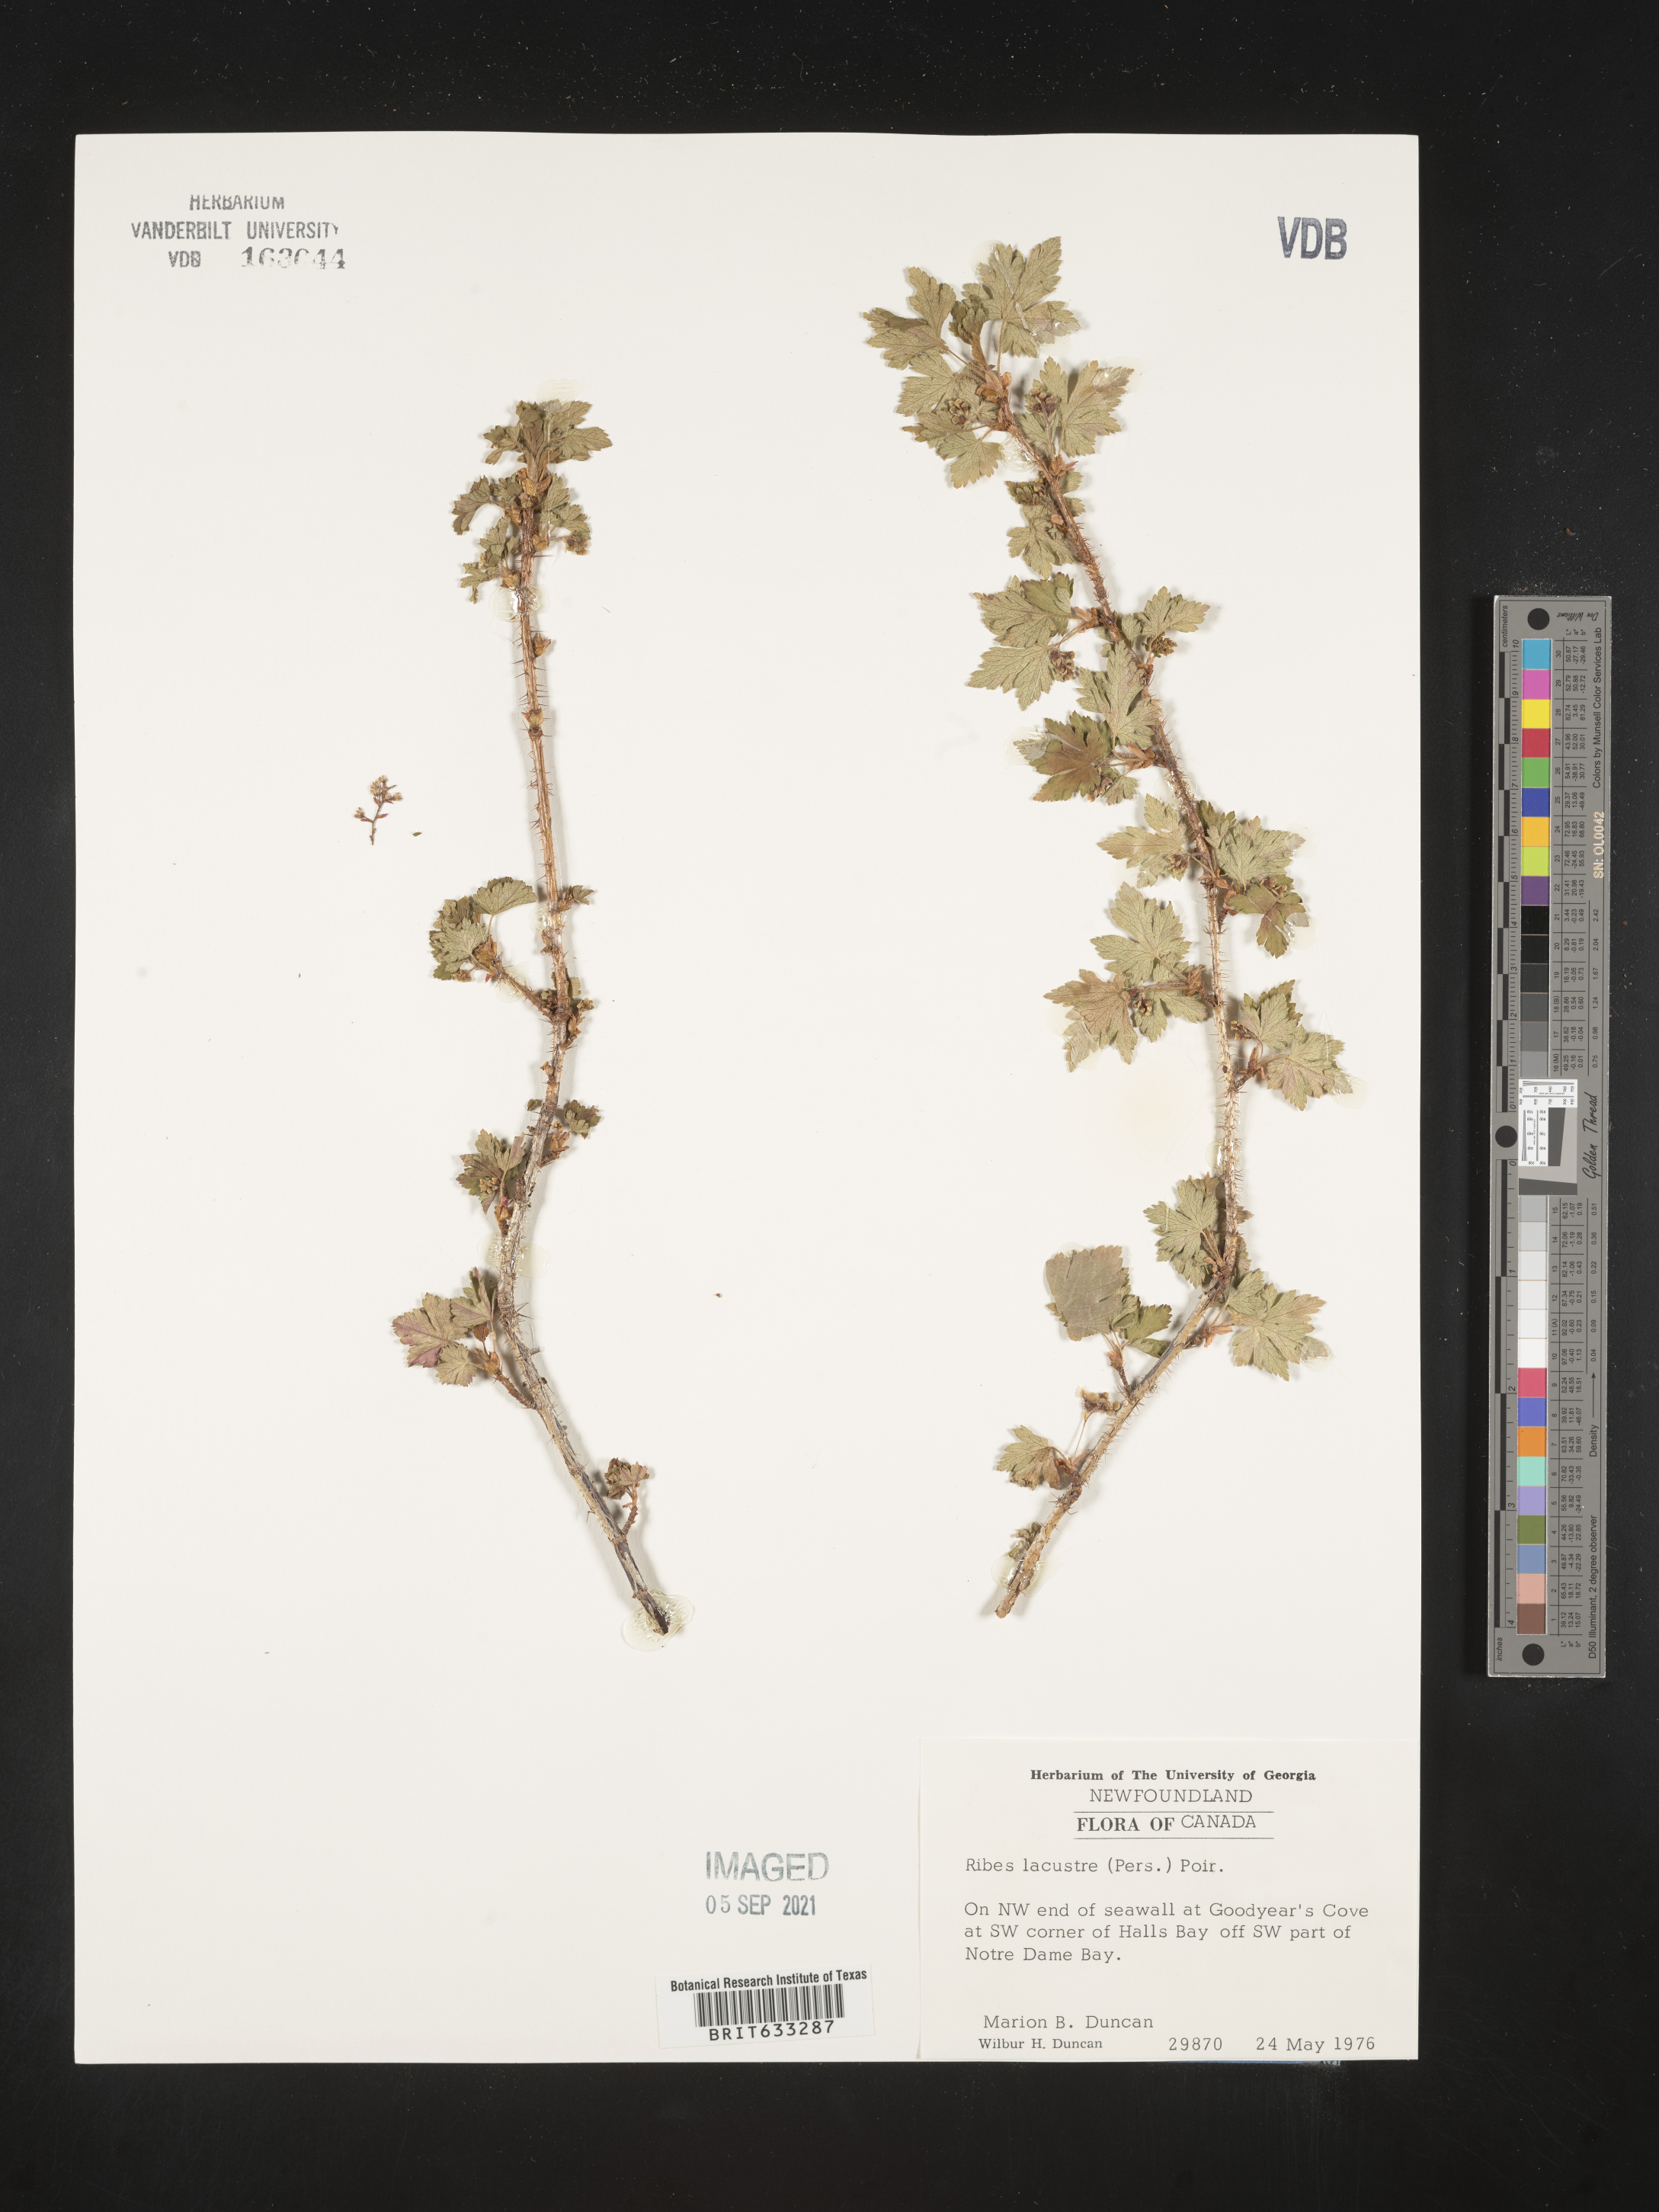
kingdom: Plantae
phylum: Tracheophyta
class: Magnoliopsida
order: Saxifragales
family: Grossulariaceae
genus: Ribes
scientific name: Ribes
